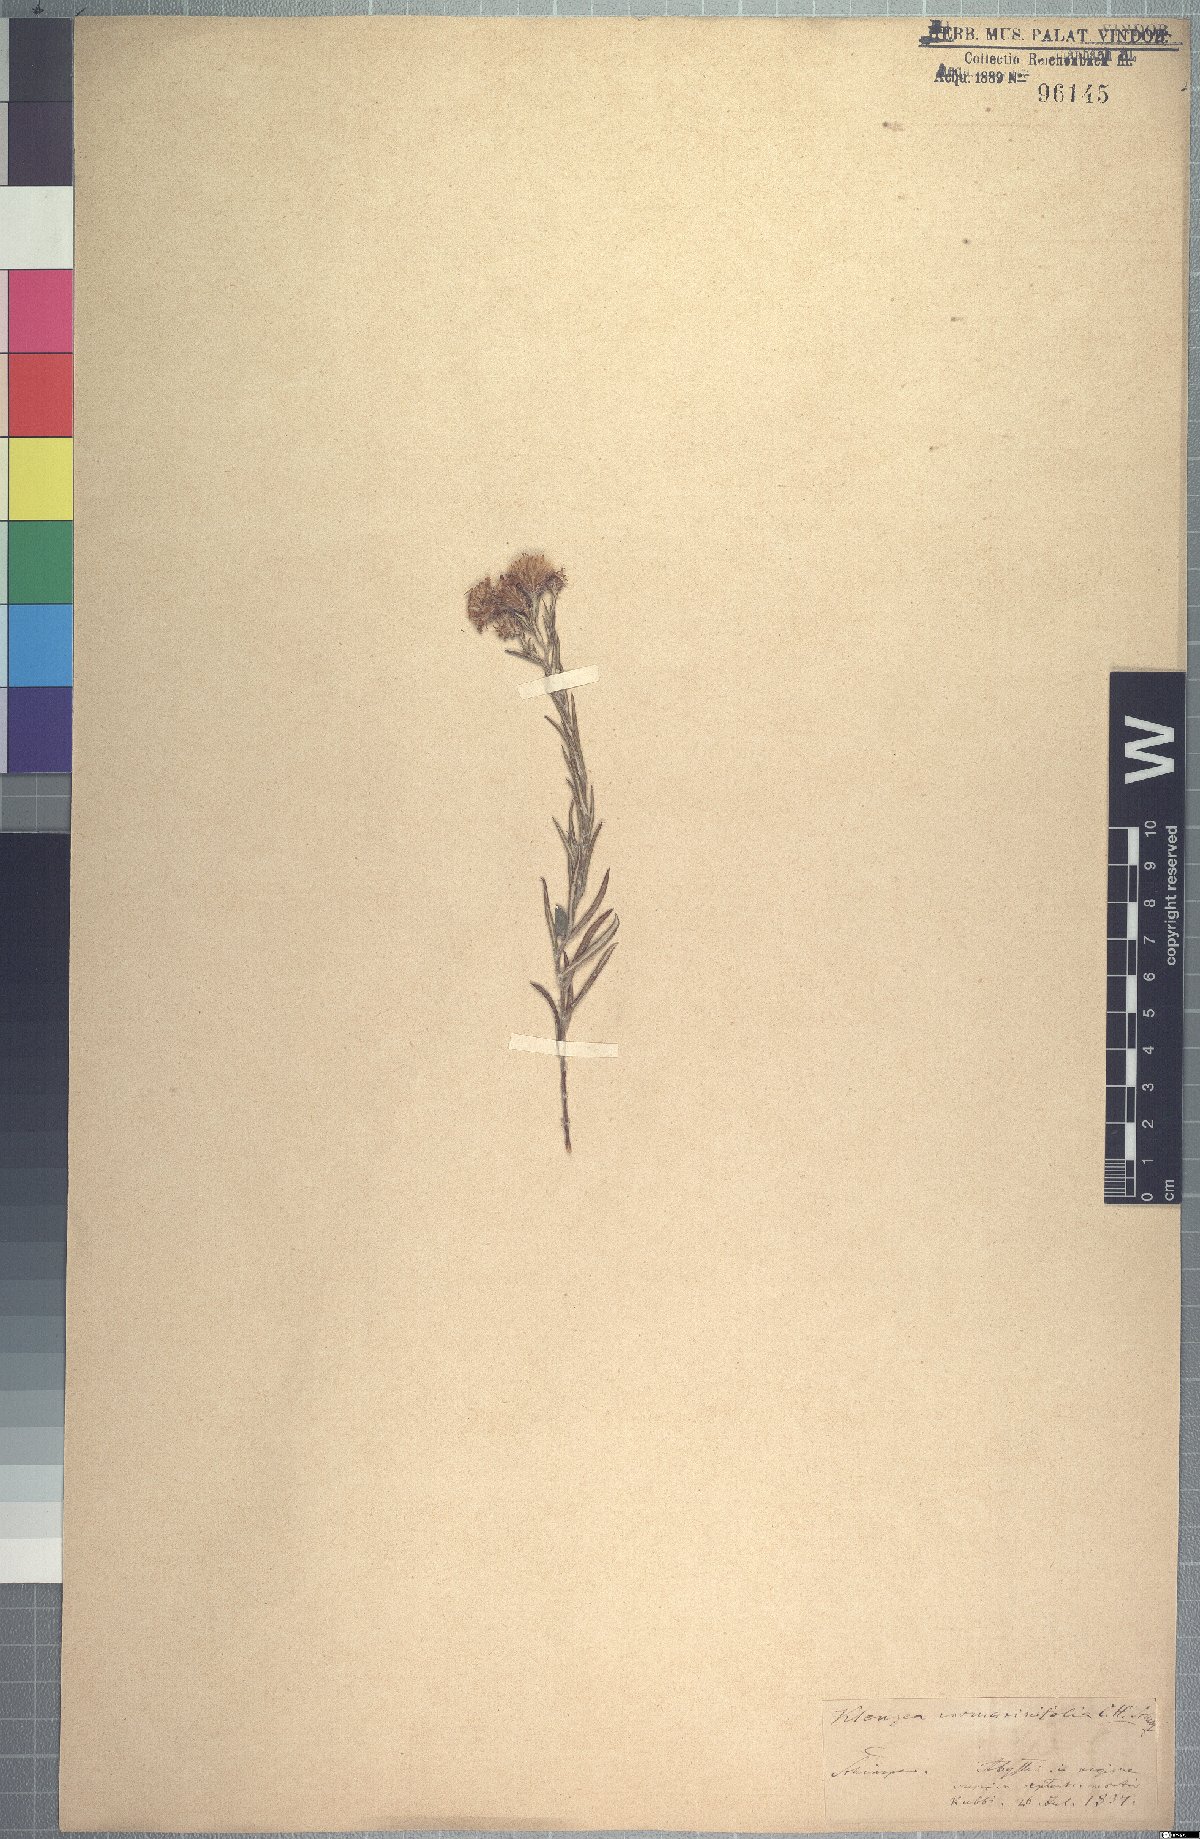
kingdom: Plantae
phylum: Tracheophyta
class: Magnoliopsida
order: Asterales
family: Asteraceae
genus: Athrixia
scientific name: Athrixia rosmarinifolia
